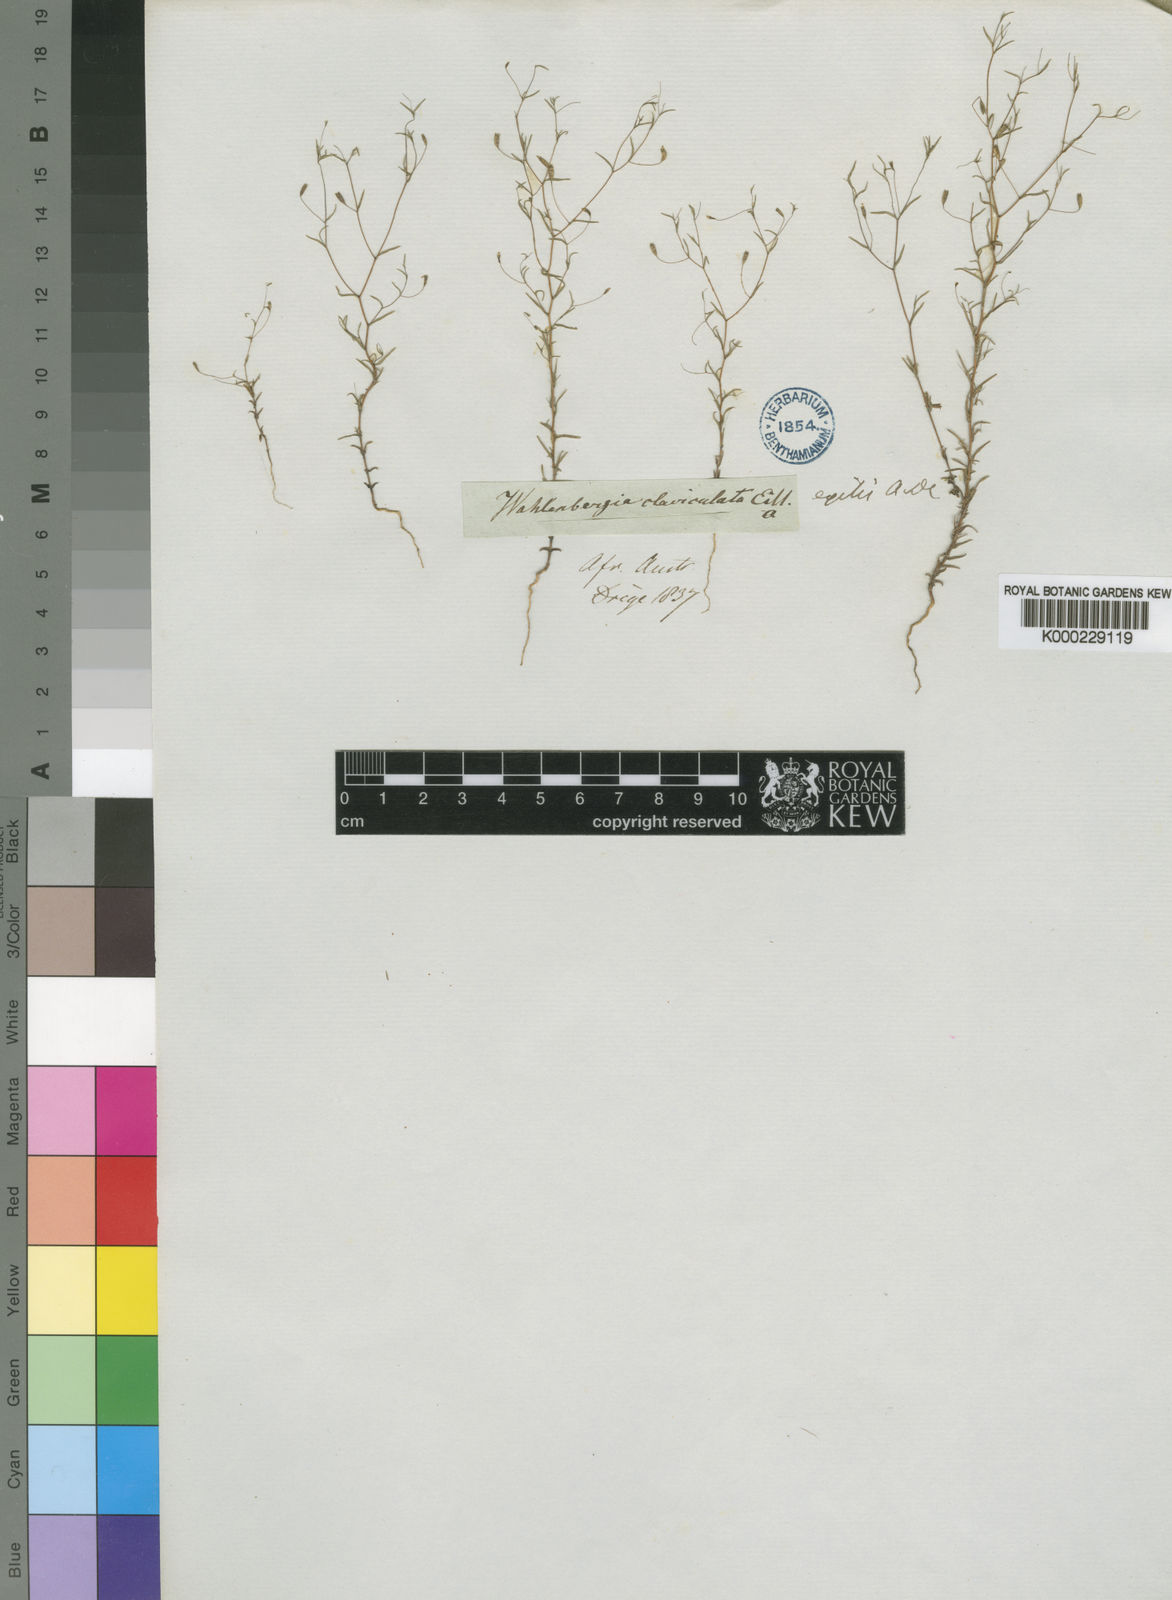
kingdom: Plantae
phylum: Tracheophyta
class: Magnoliopsida
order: Asterales
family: Campanulaceae
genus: Wahlenbergia
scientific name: Wahlenbergia exilis
